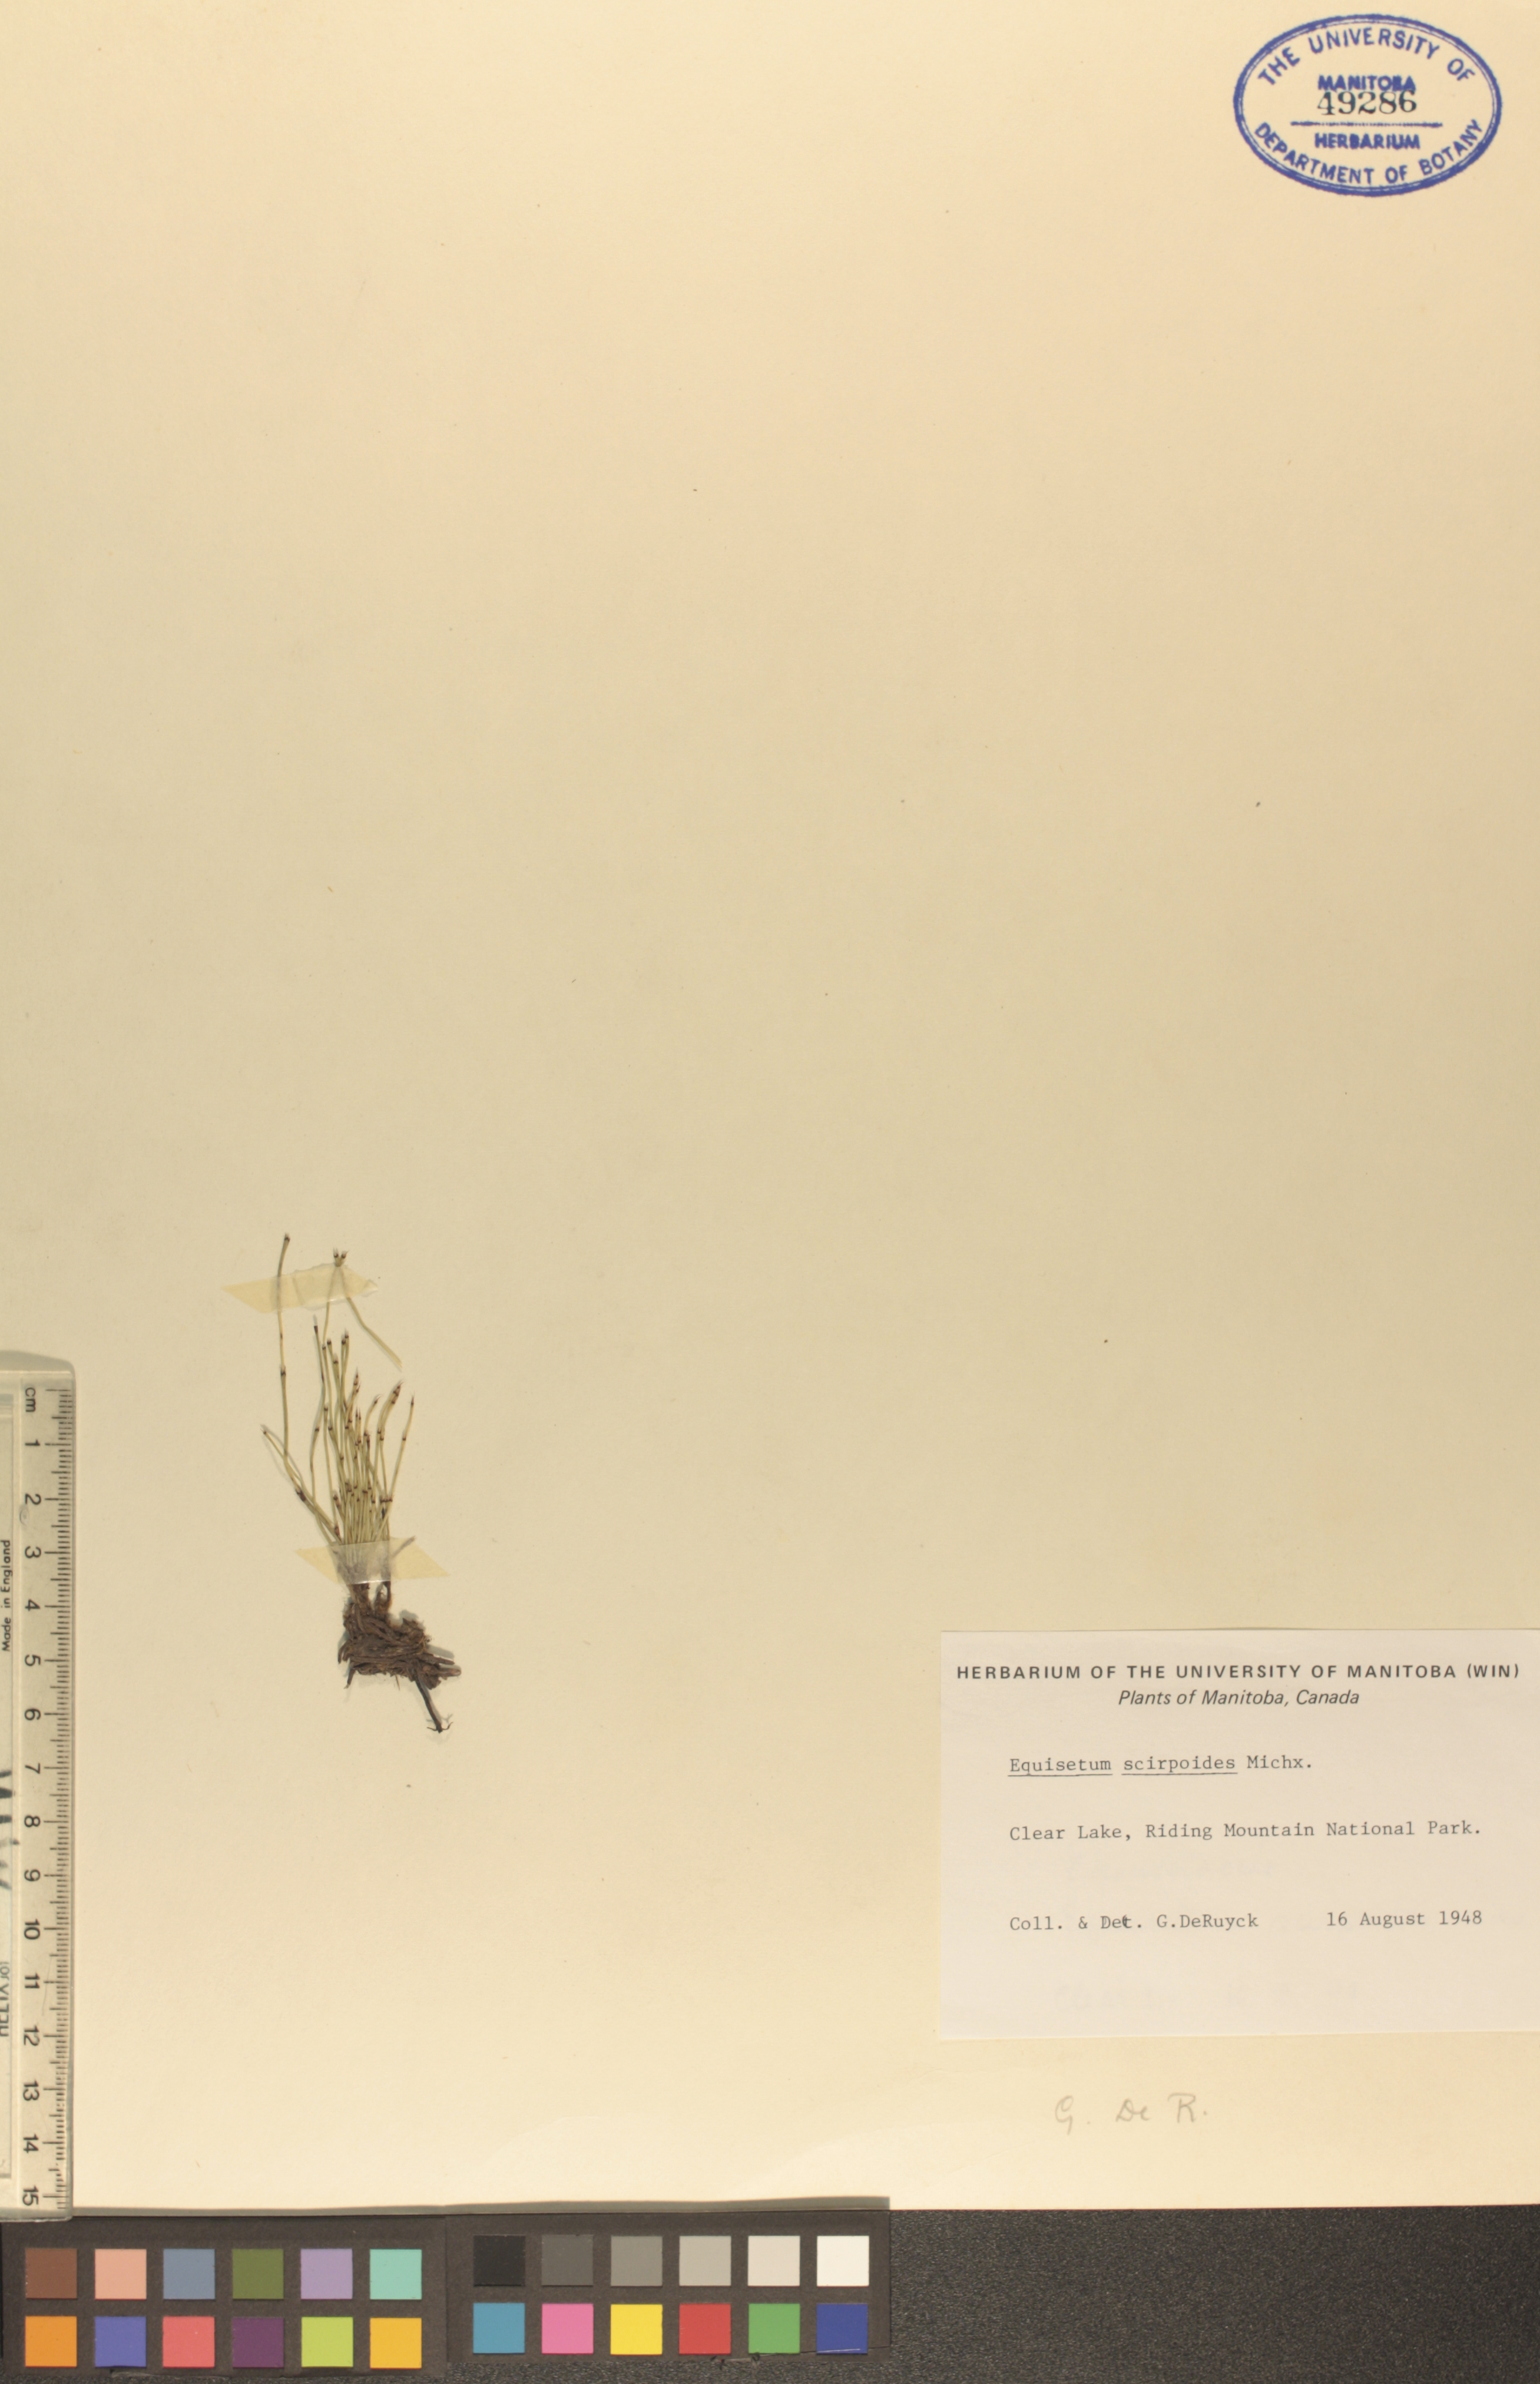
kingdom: Plantae
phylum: Tracheophyta
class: Polypodiopsida
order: Equisetales
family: Equisetaceae
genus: Equisetum
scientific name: Equisetum scirpoides
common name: Delicate horsetail
